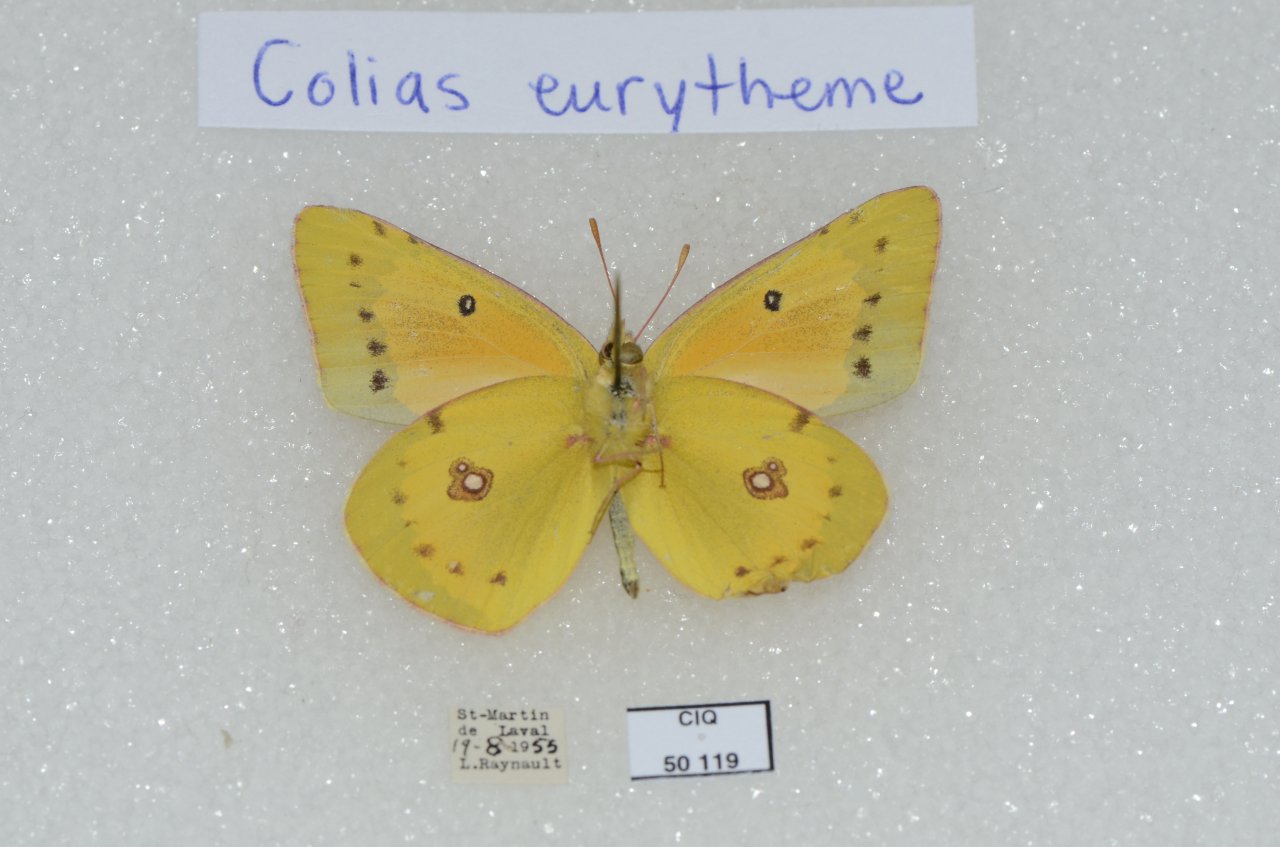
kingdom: Animalia
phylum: Arthropoda
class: Insecta
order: Lepidoptera
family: Pieridae
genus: Colias
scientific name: Colias eurytheme
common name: Orange Sulphur
